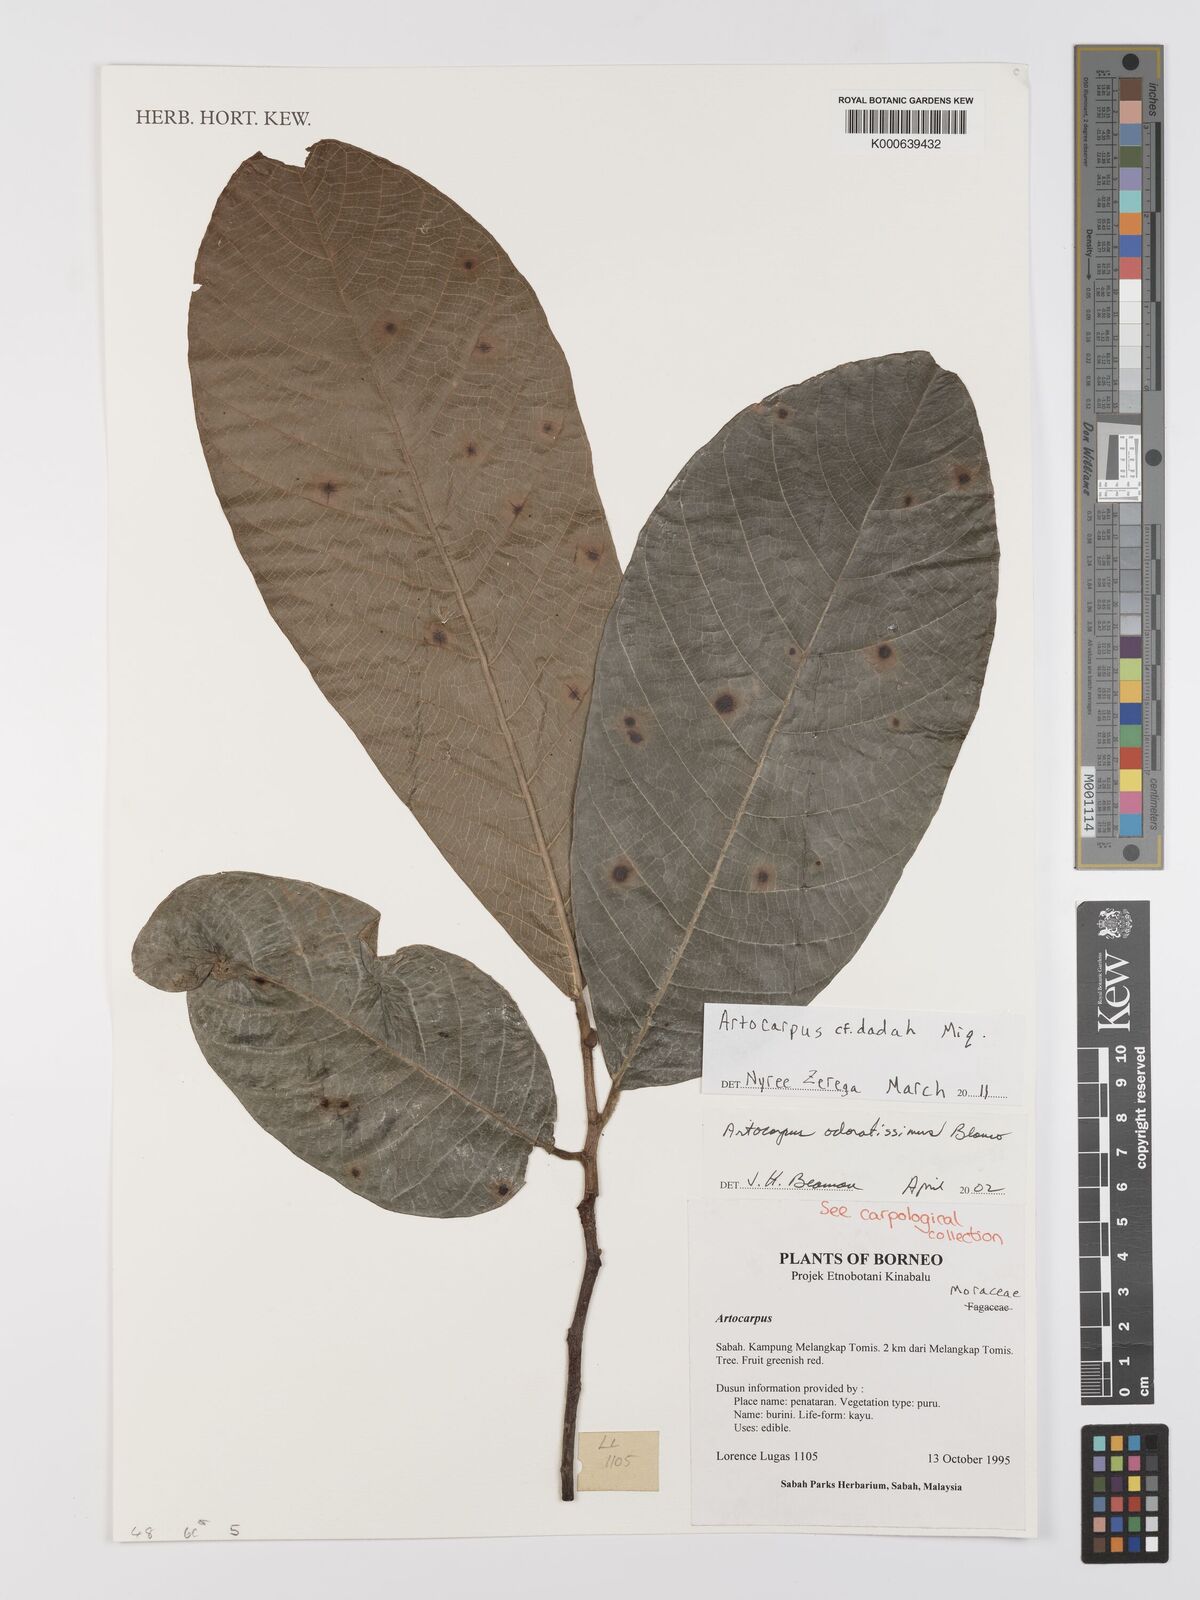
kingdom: Plantae
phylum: Tracheophyta
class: Magnoliopsida
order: Rosales
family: Moraceae
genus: Artocarpus
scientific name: Artocarpus lacucha
